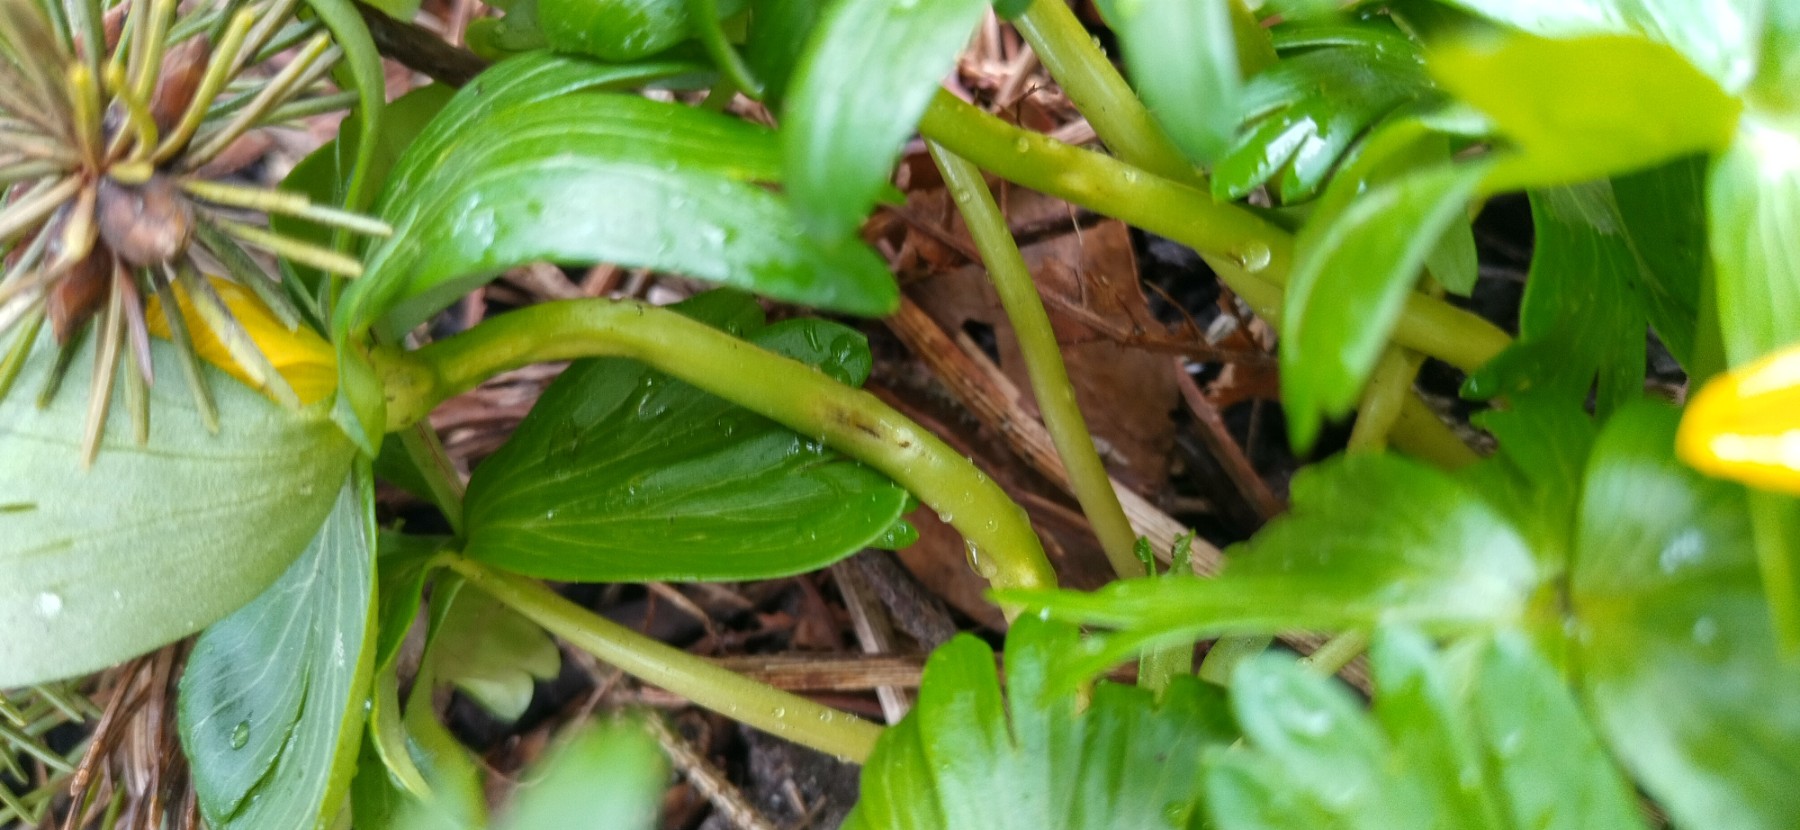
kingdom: Fungi
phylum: Basidiomycota
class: Ustilaginomycetes
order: Urocystidales
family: Urocystidaceae
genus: Urocystis
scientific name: Urocystis eranthidis
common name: erantis-brand
